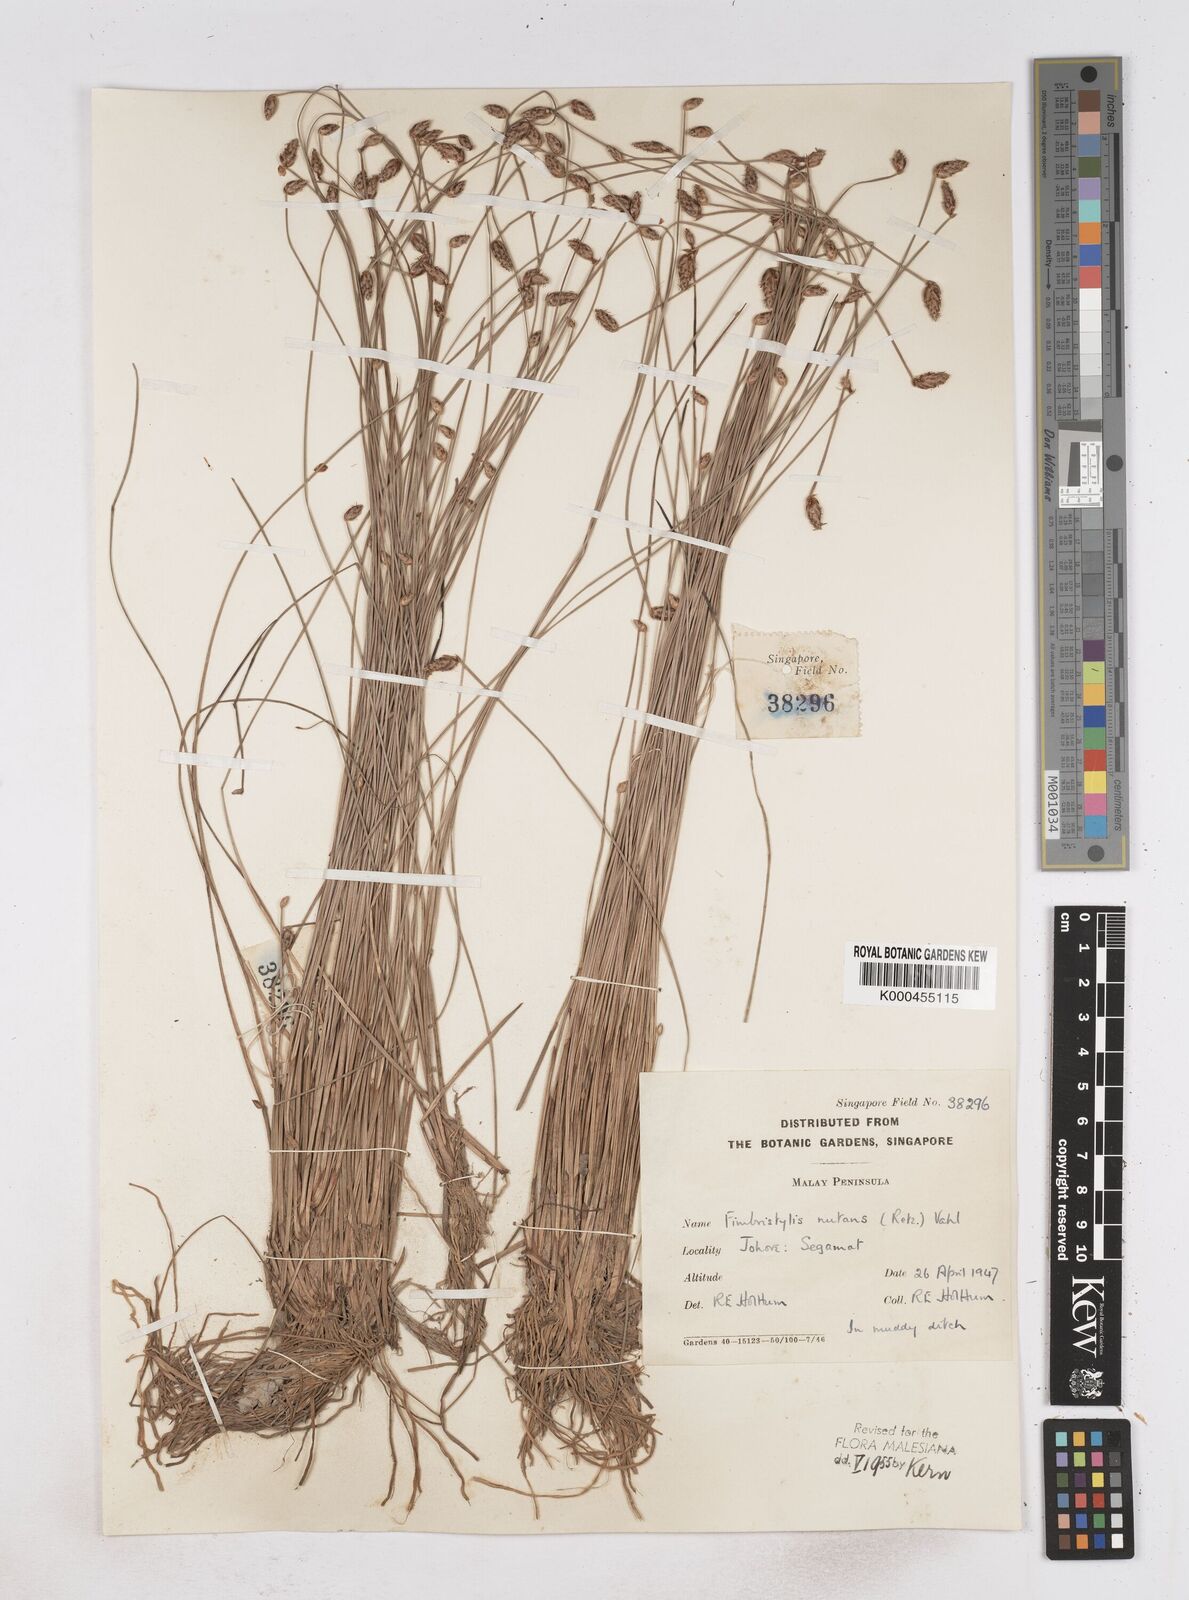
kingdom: Plantae
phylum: Tracheophyta
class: Liliopsida
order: Poales
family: Cyperaceae
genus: Fimbristylis
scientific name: Fimbristylis nutans
